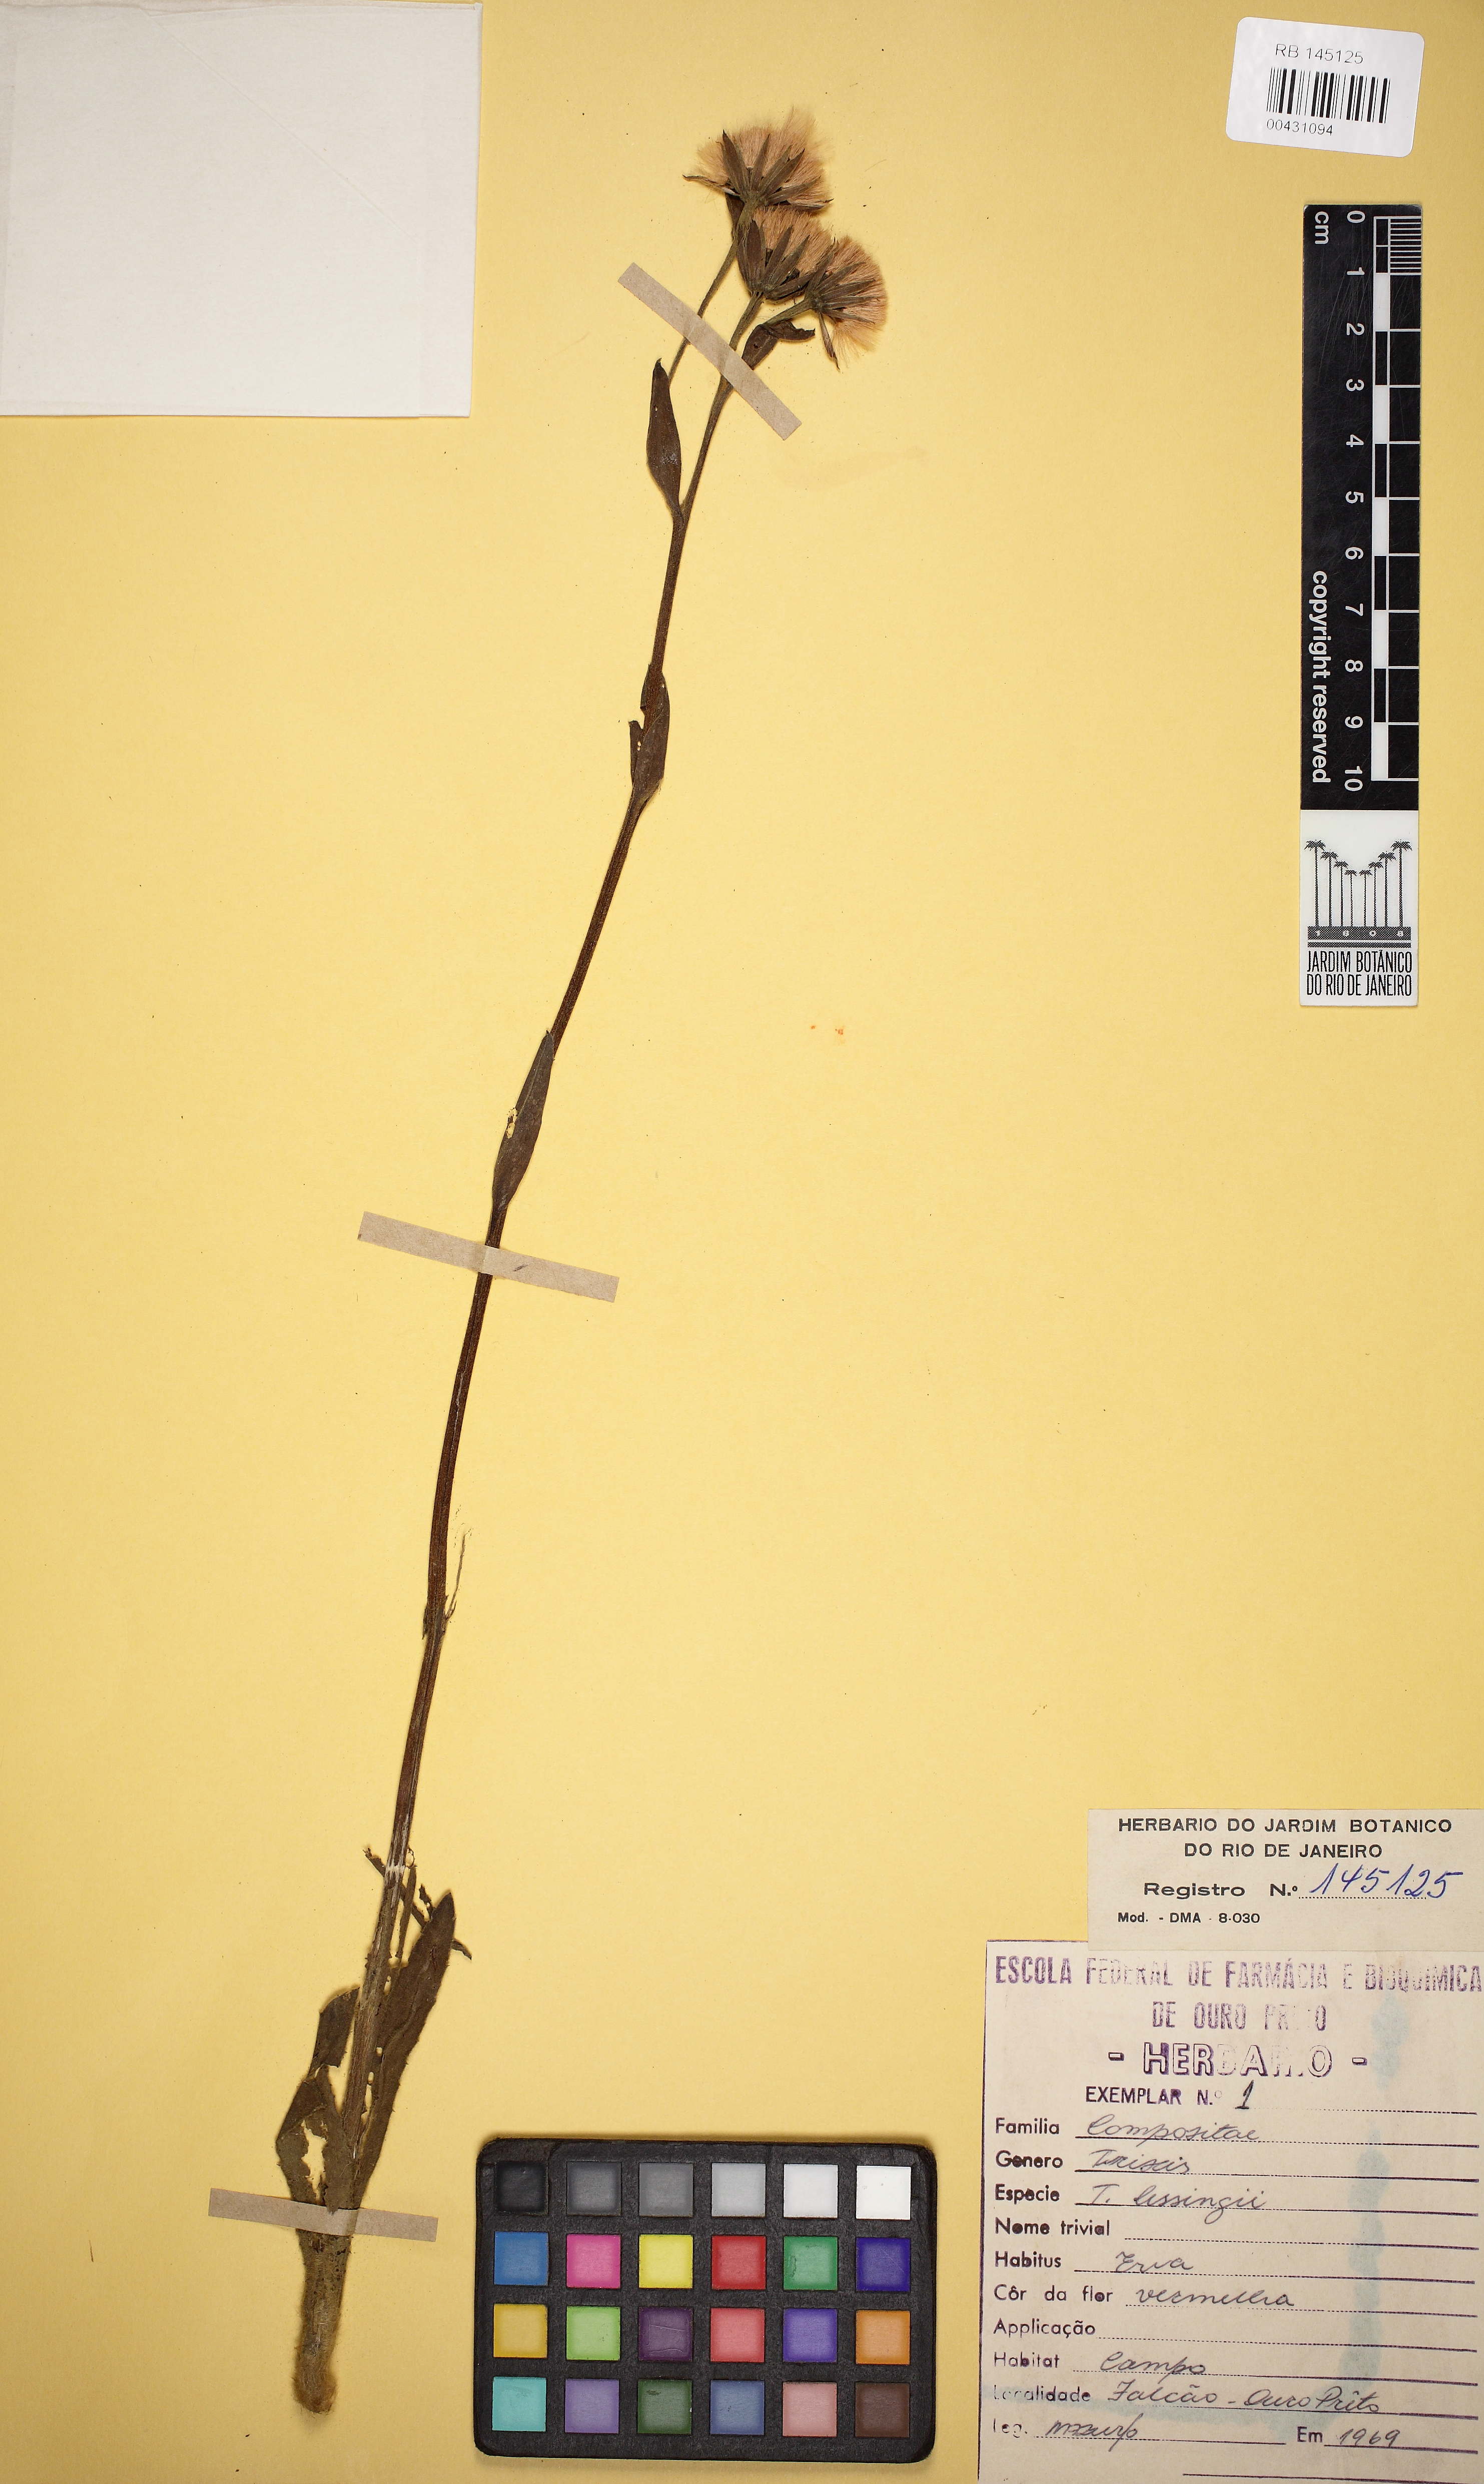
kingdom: Plantae
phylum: Tracheophyta
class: Magnoliopsida
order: Asterales
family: Asteraceae
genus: Trixis
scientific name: Trixis lessingii
